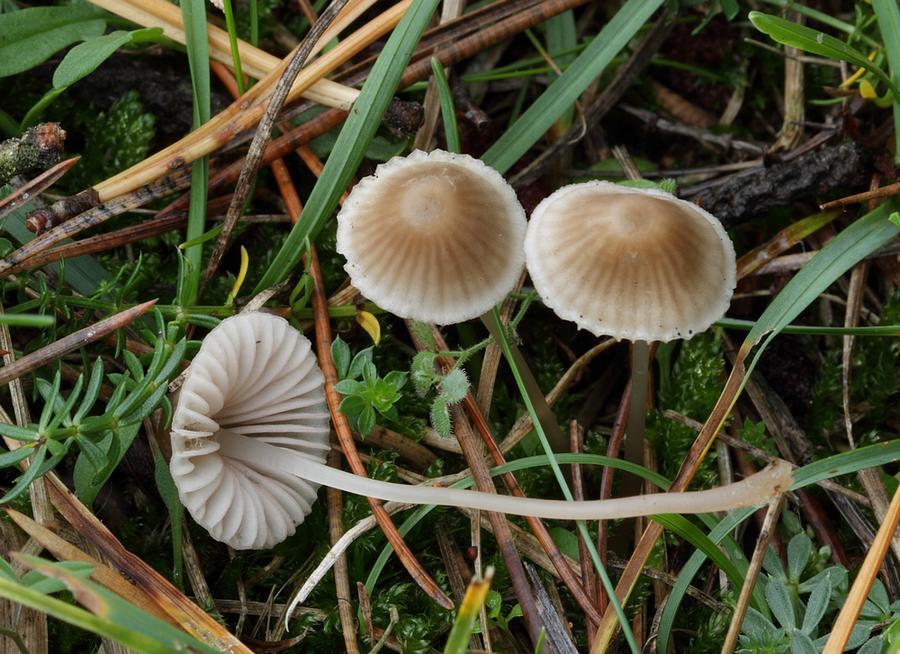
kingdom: Fungi
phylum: Basidiomycota
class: Agaricomycetes
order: Agaricales
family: Mycenaceae
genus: Mycena
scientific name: Mycena olivaceomarginata
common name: brunægget huesvamp
